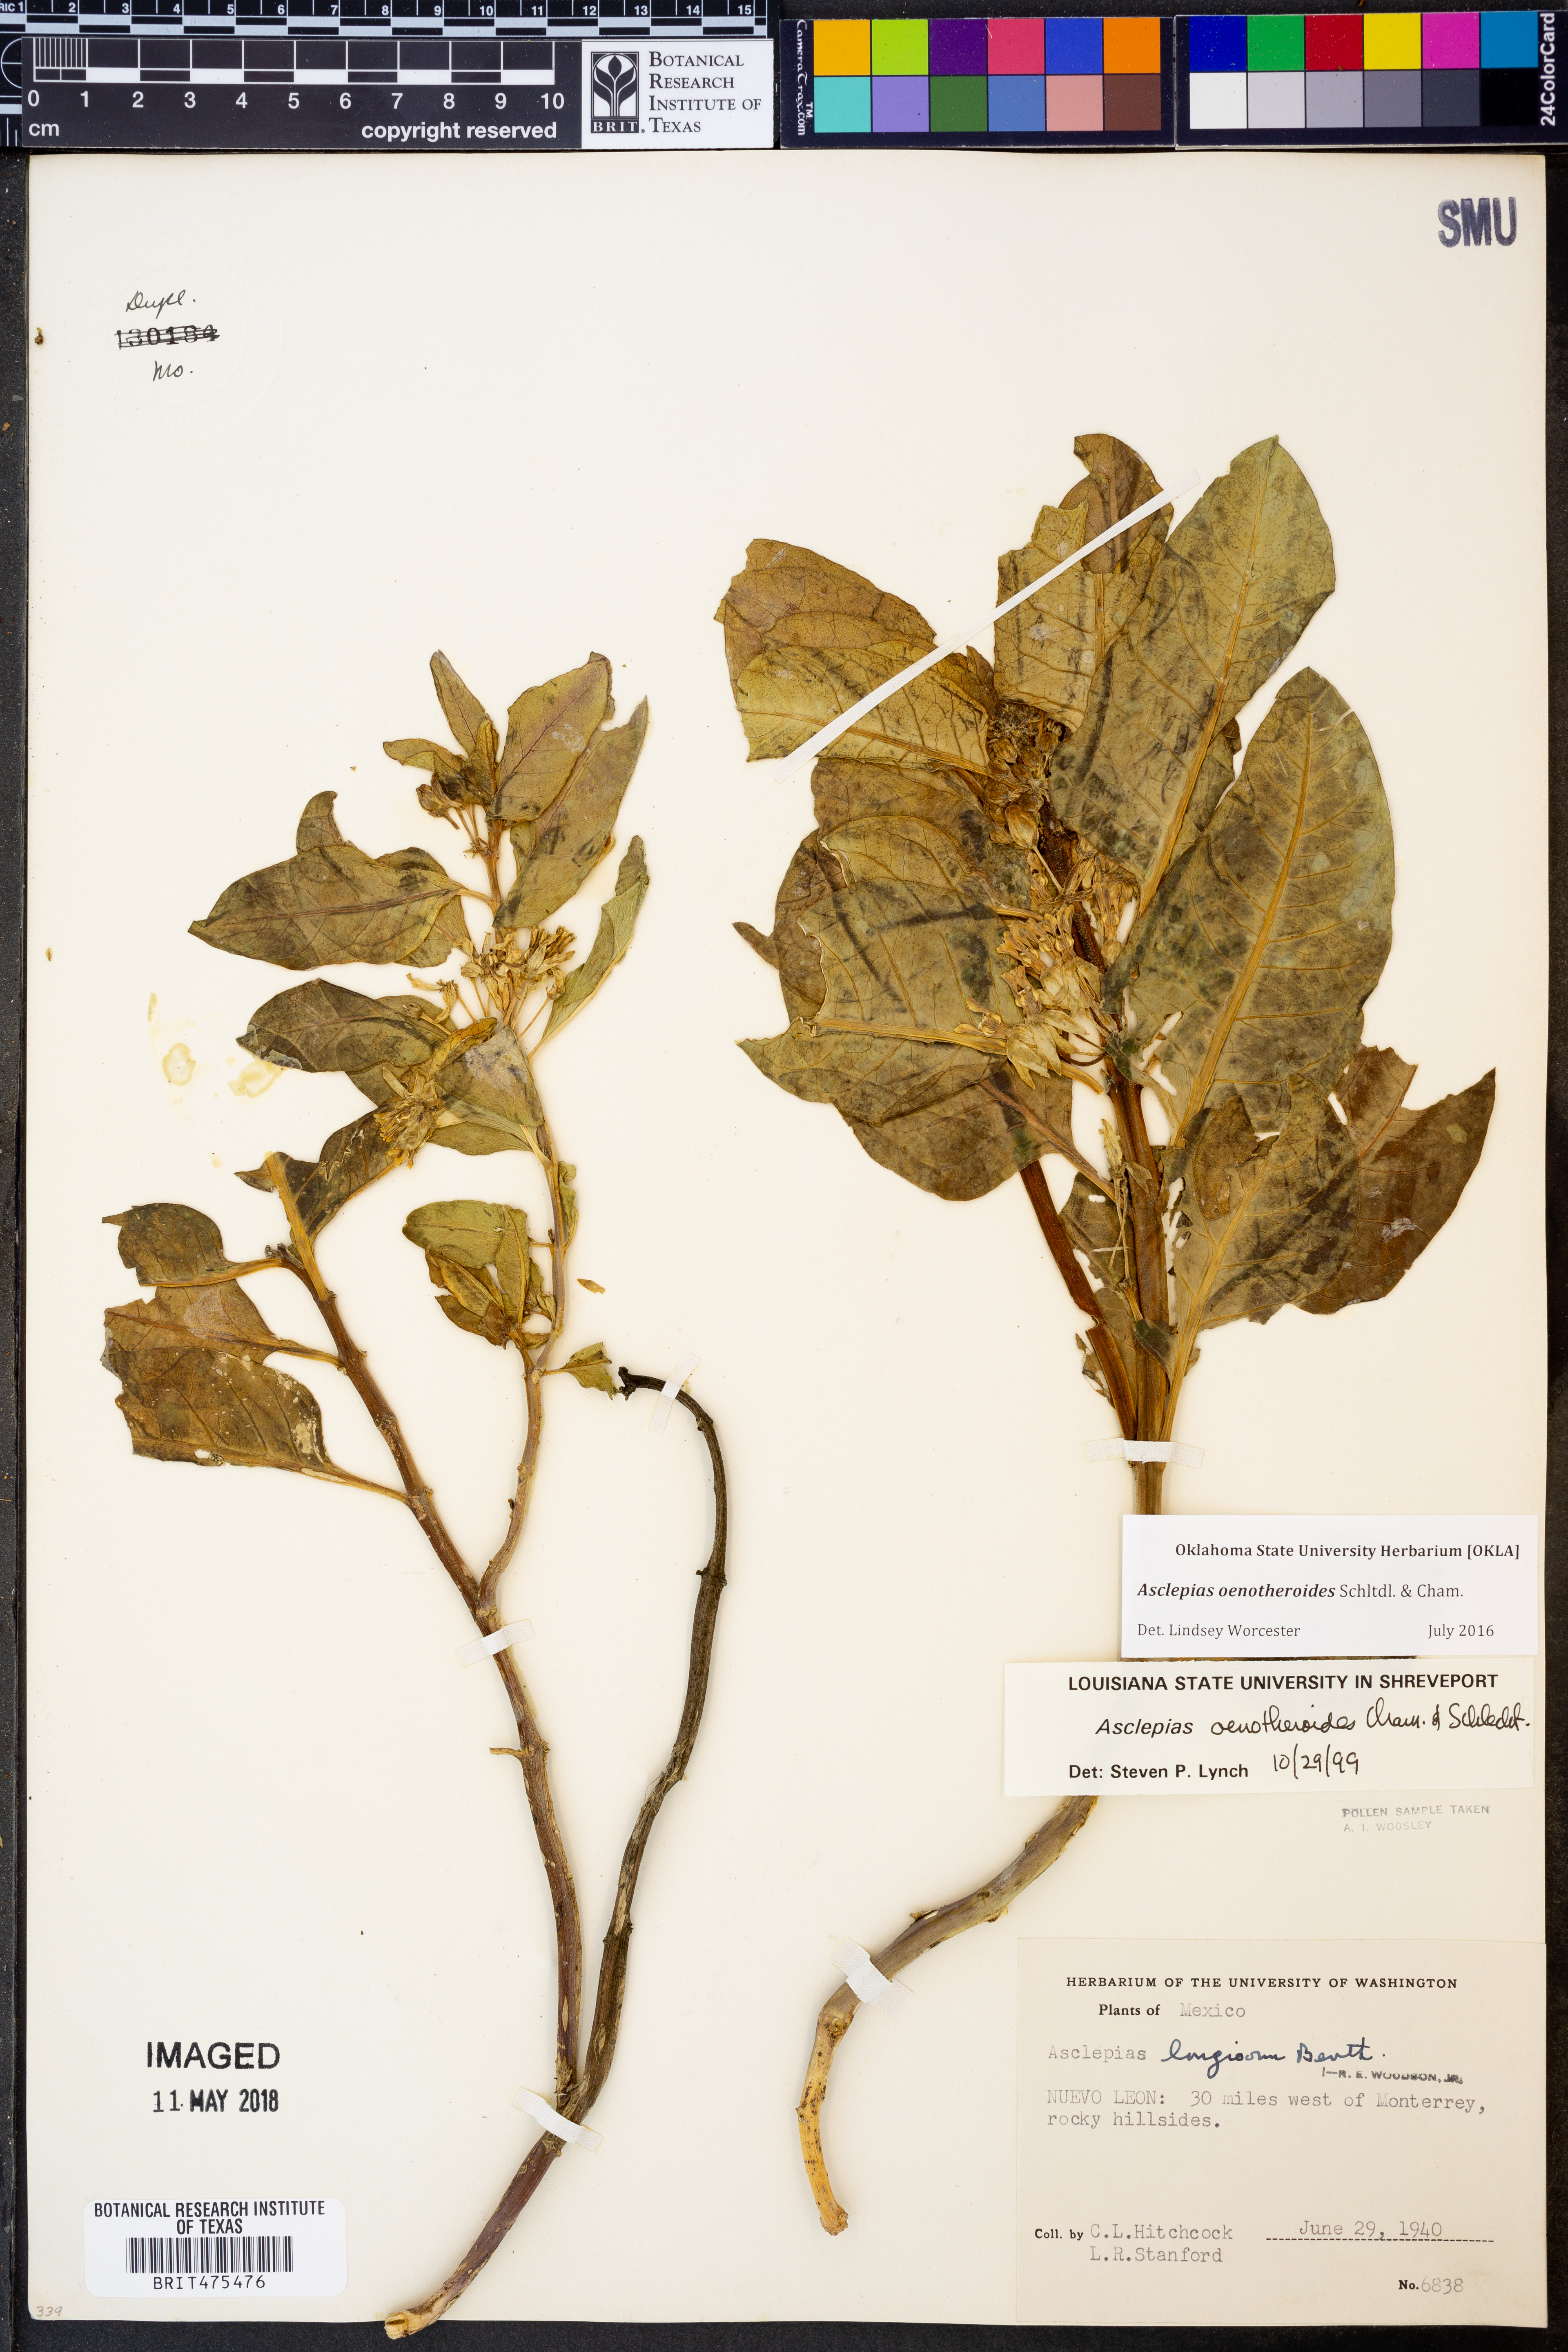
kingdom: Plantae
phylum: Tracheophyta
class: Magnoliopsida
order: Gentianales
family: Apocynaceae
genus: Asclepias
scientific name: Asclepias oenotheroides
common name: Zizotes milkweed
